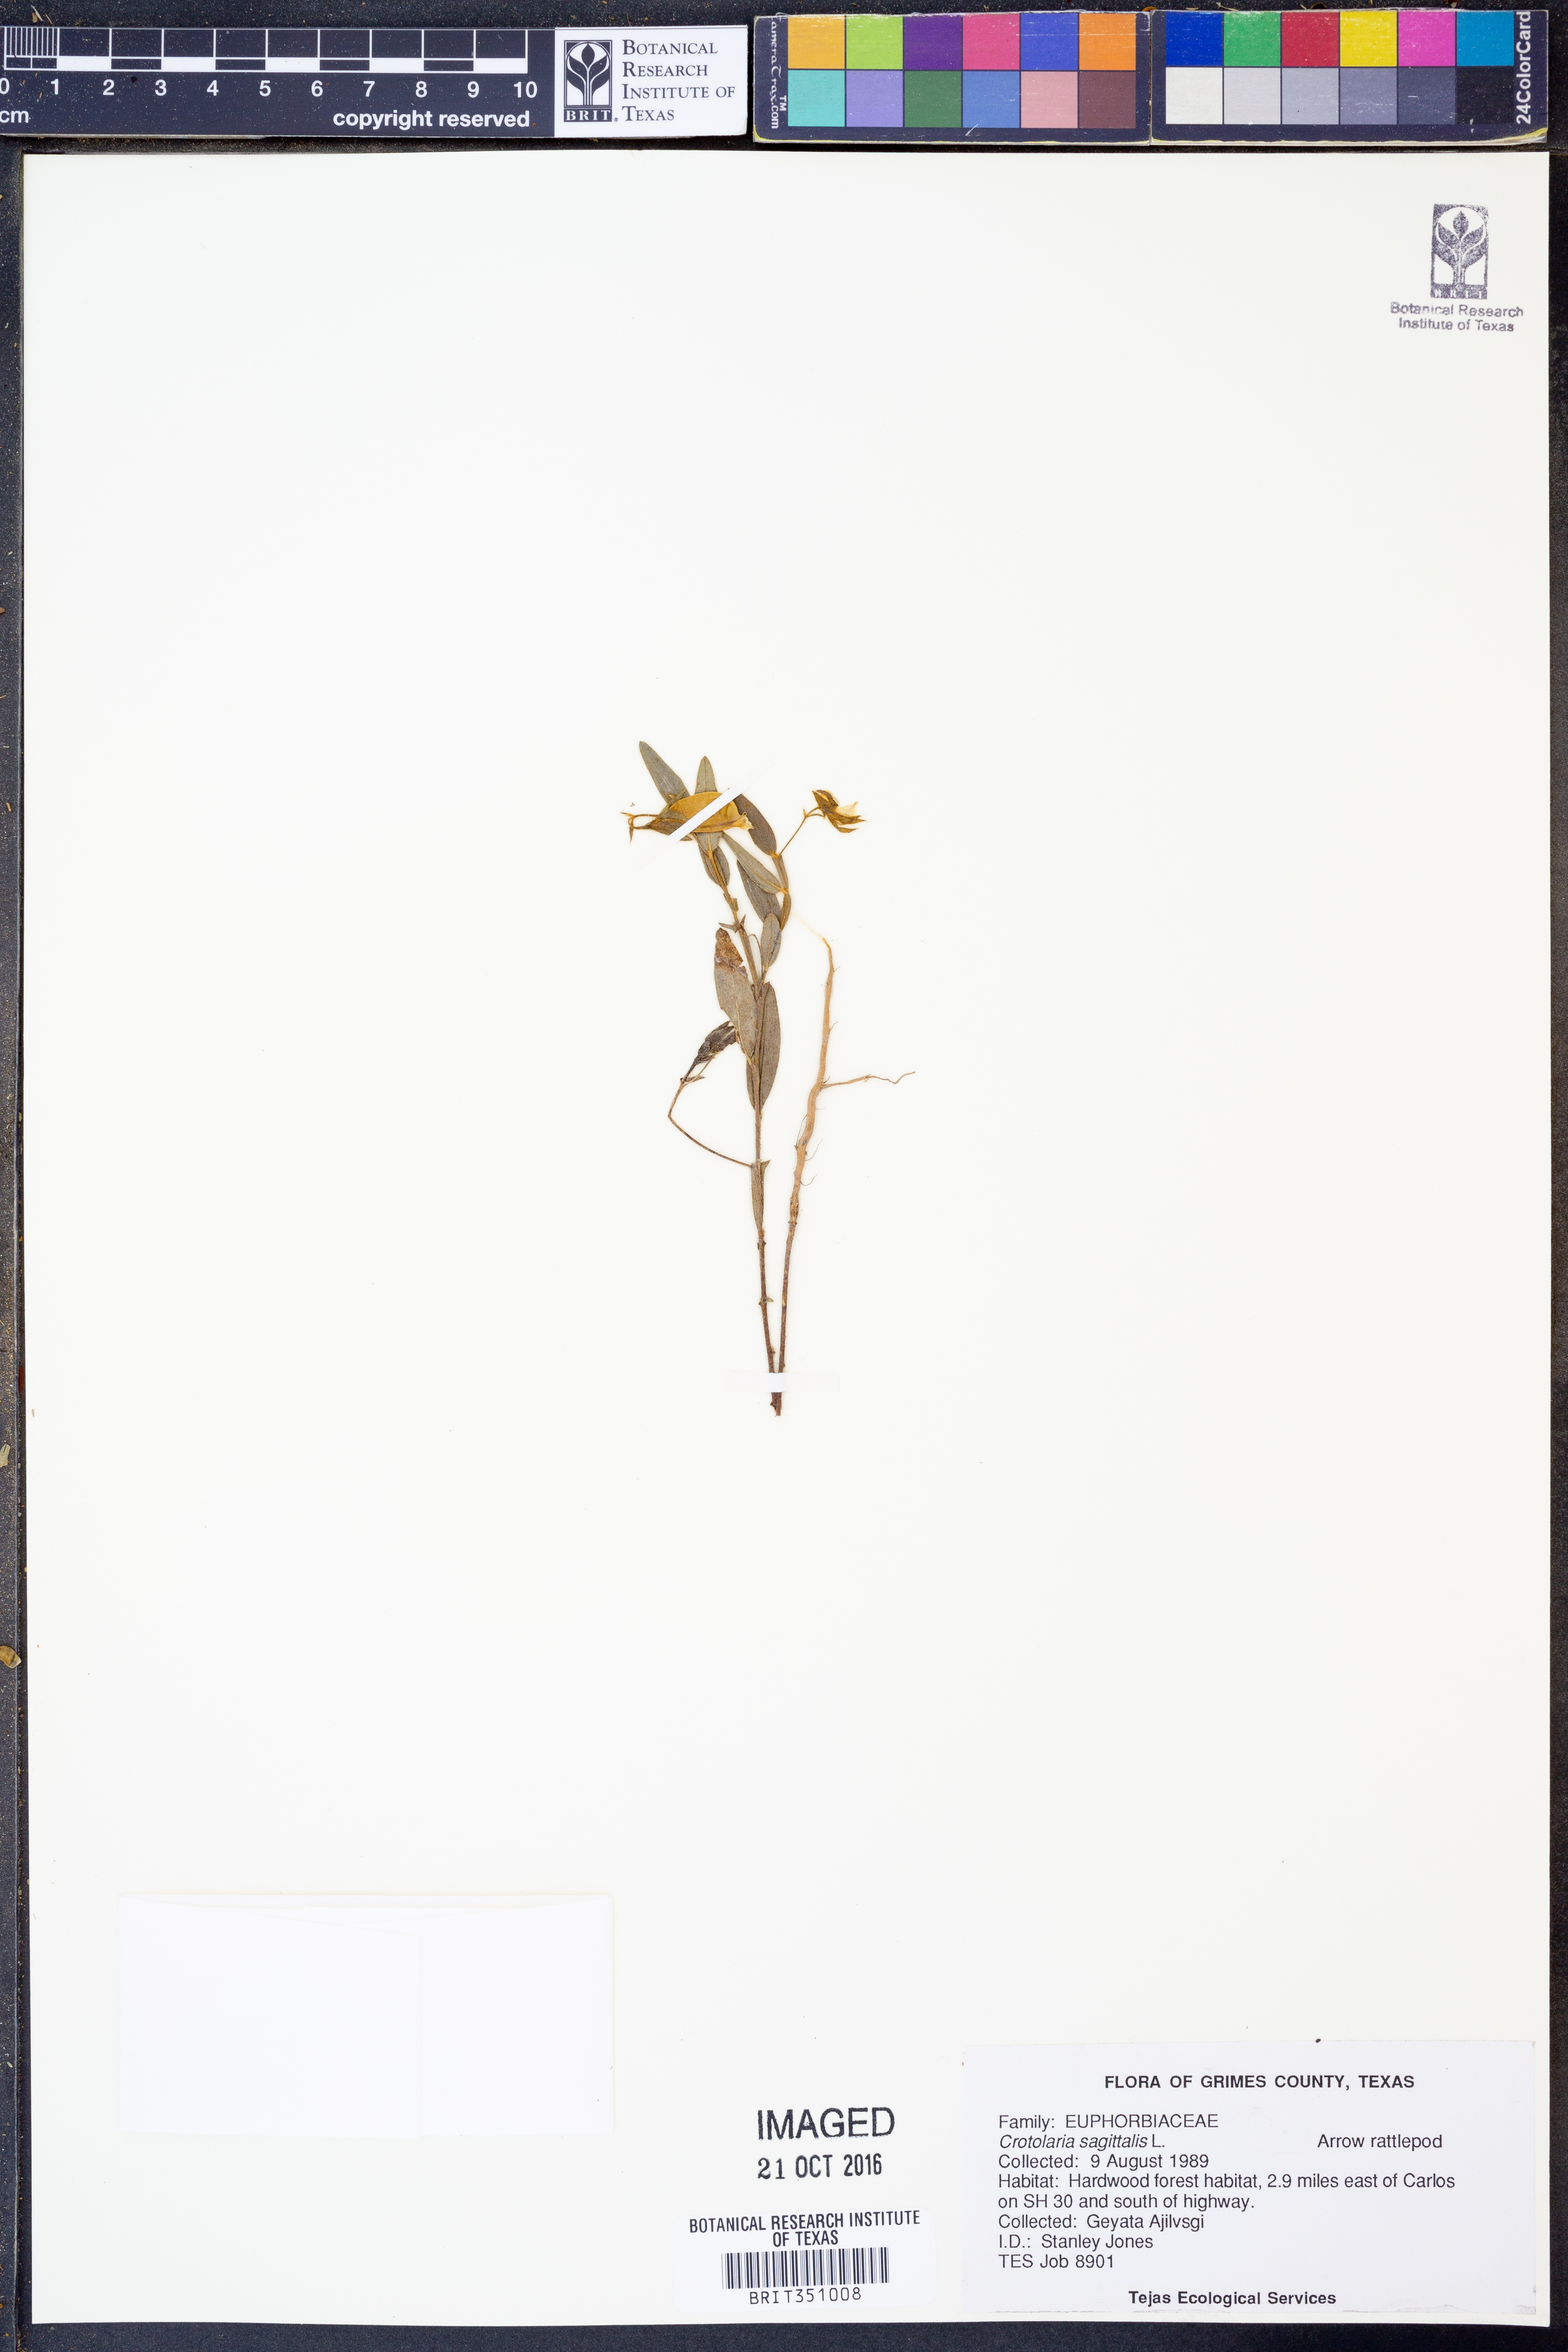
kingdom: Plantae
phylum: Tracheophyta
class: Magnoliopsida
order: Fabales
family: Fabaceae
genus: Crotalaria
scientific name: Crotalaria sagittalis
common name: Arrowhead rattlebox
